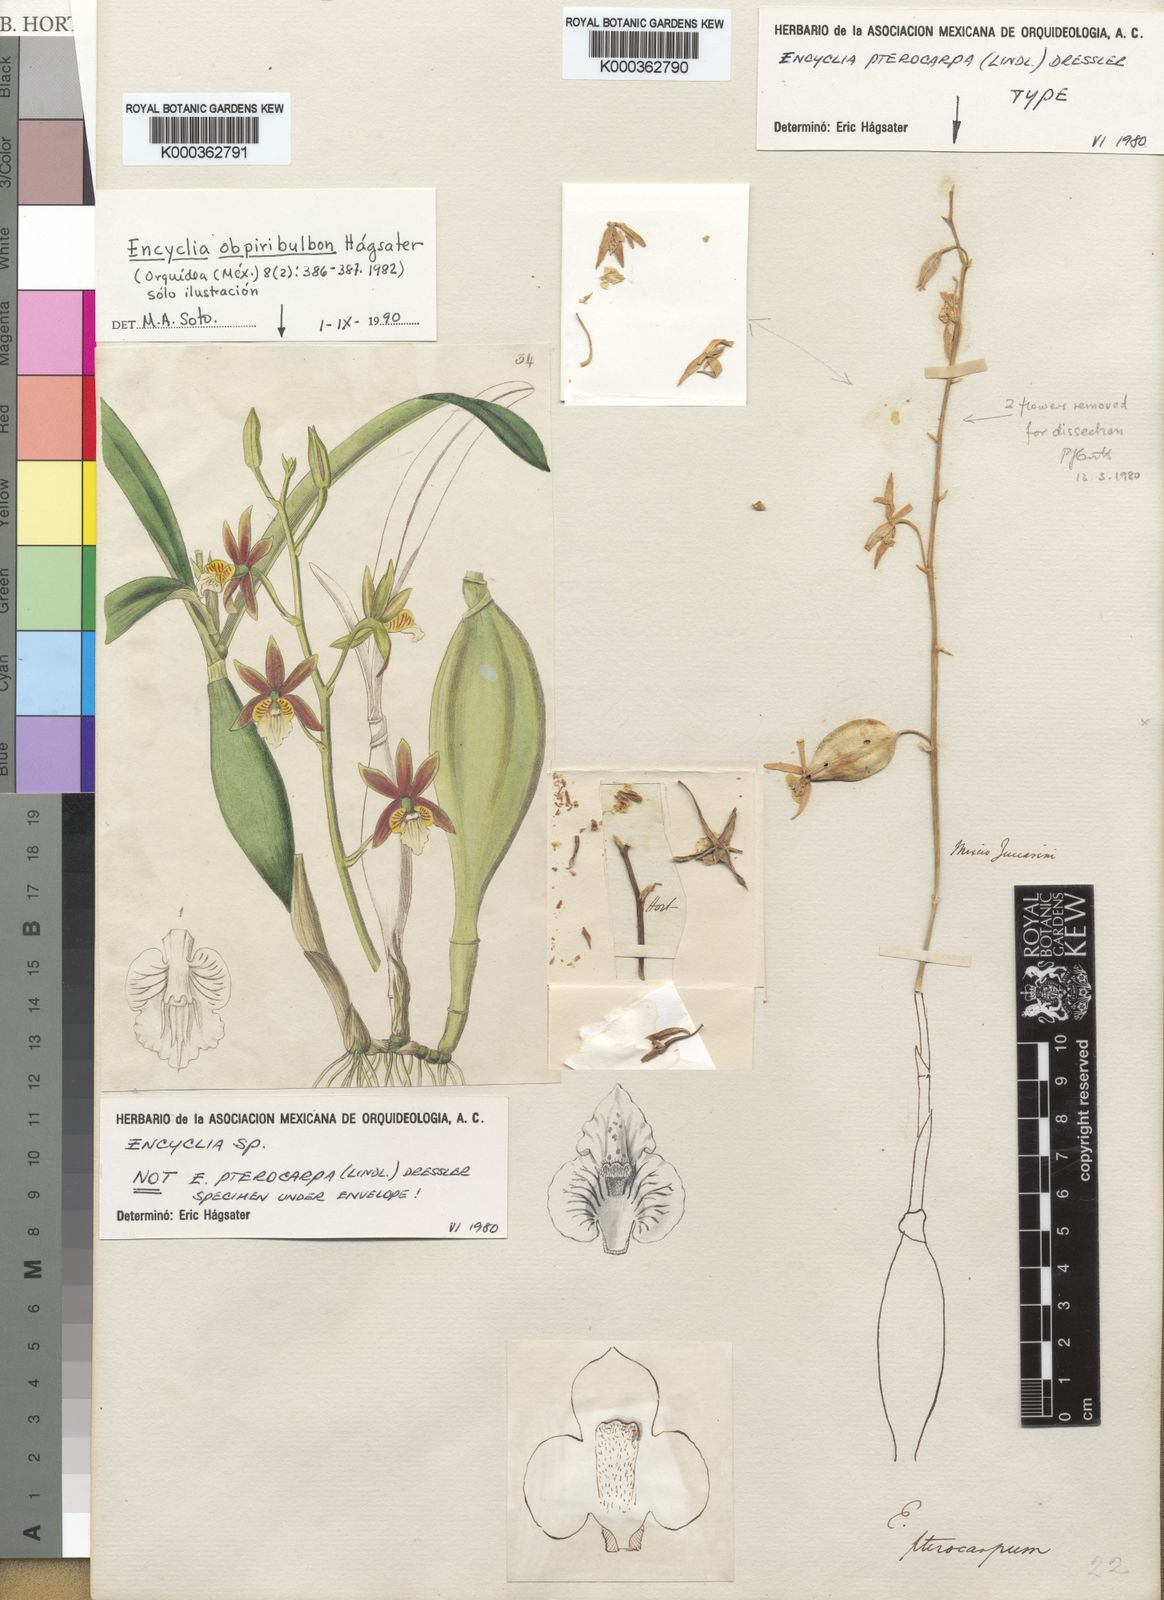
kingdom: Plantae
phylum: Tracheophyta
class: Liliopsida
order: Asparagales
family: Orchidaceae
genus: Prosthechea
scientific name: Prosthechea pterocarpa
